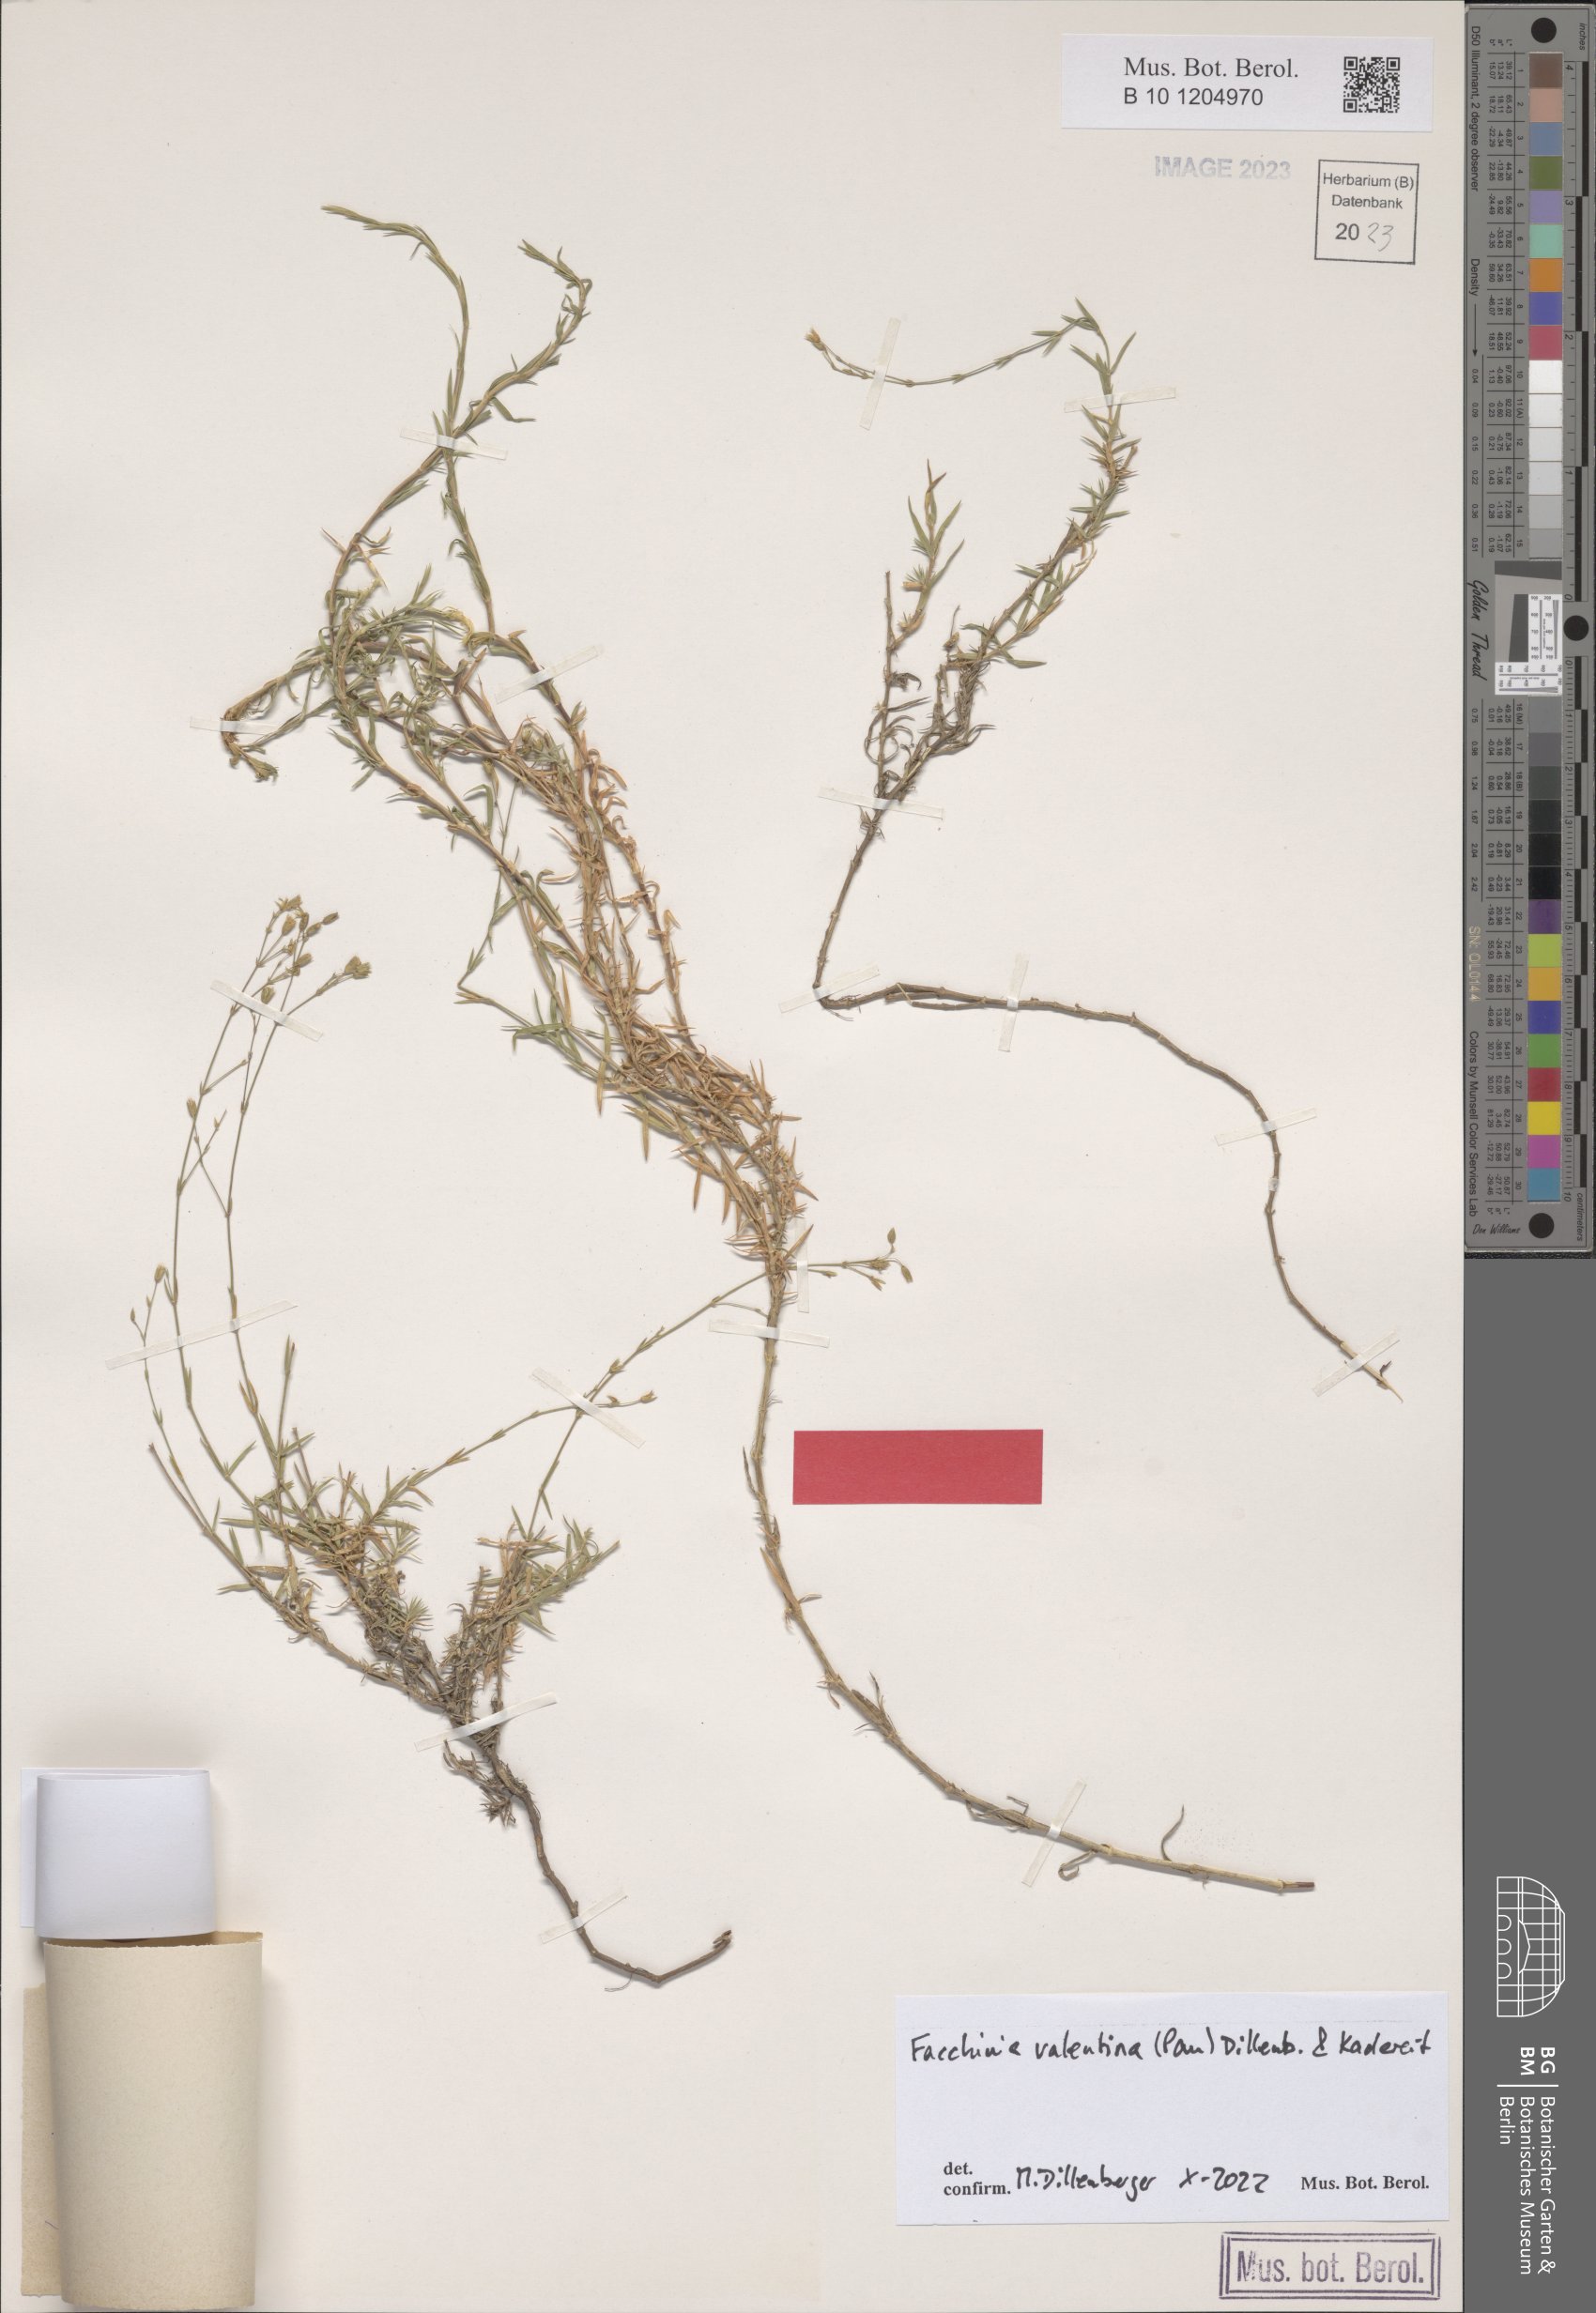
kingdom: Plantae
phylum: Tracheophyta
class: Magnoliopsida
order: Caryophyllales
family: Caryophyllaceae
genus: Facchinia
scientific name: Facchinia valentina
